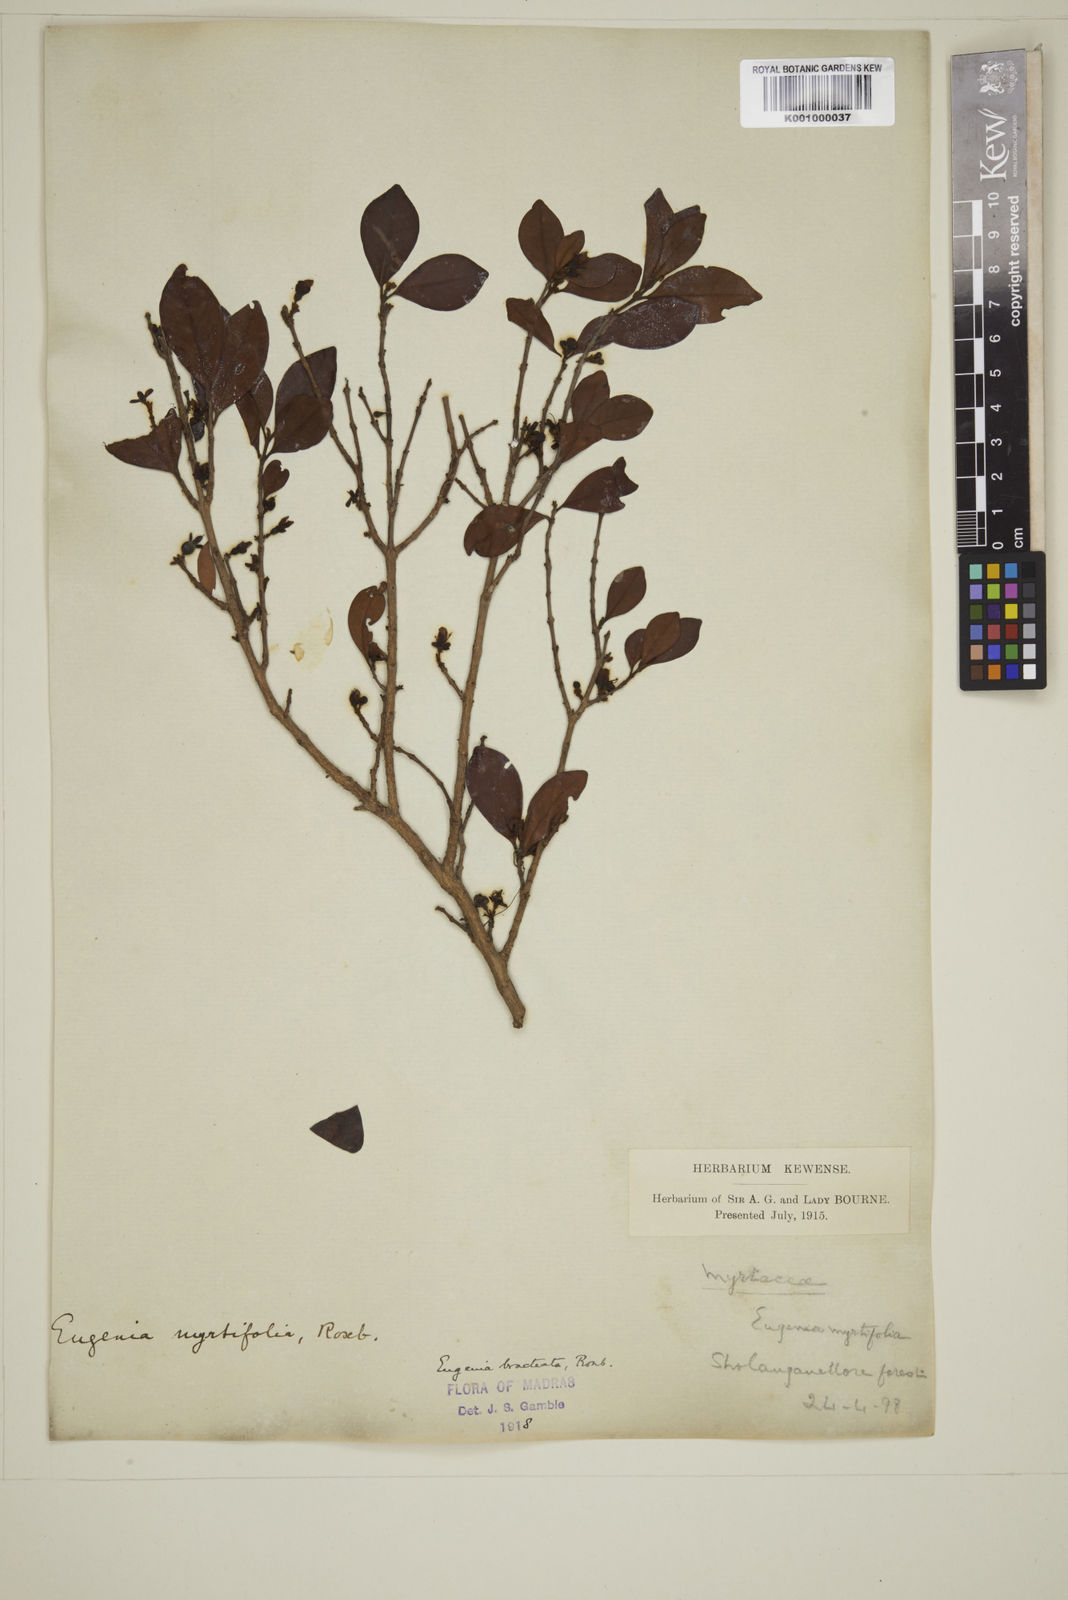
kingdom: Plantae
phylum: Tracheophyta
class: Magnoliopsida
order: Myrtales
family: Myrtaceae
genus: Myrcia
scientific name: Myrcia bracteata
